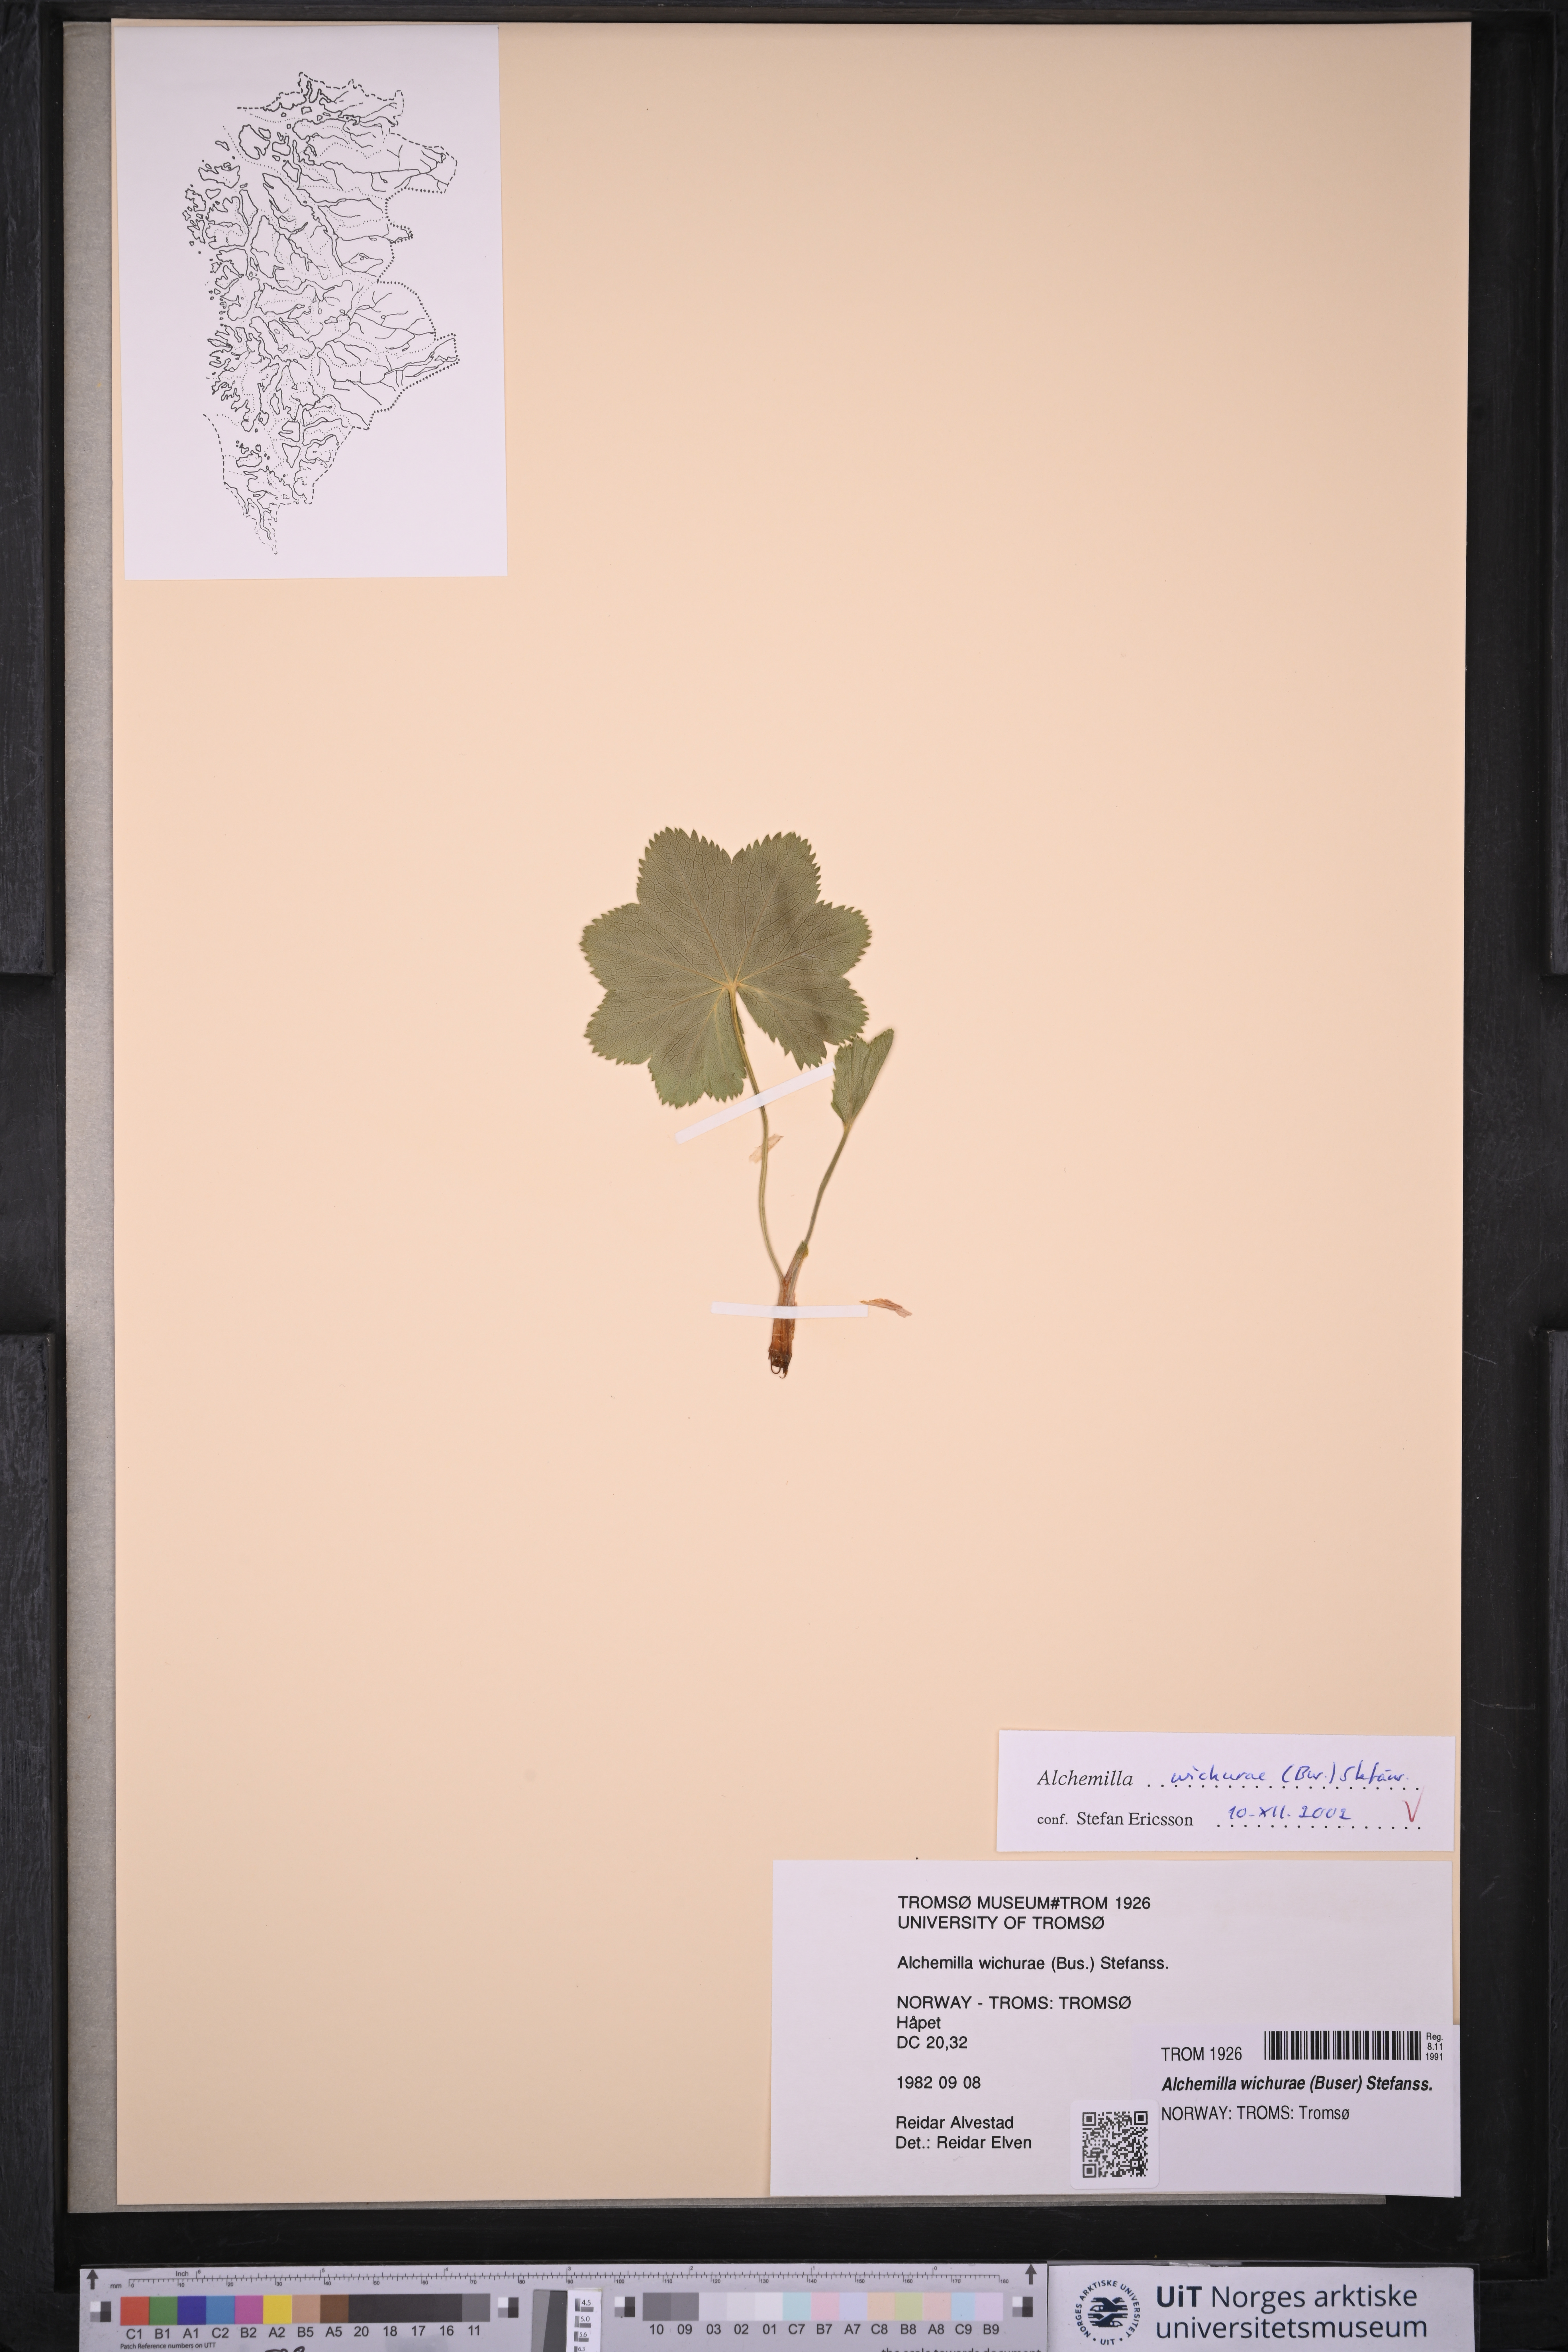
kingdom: Plantae
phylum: Tracheophyta
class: Magnoliopsida
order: Rosales
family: Rosaceae
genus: Alchemilla
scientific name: Alchemilla wichurae
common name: Rock lady's mantle
